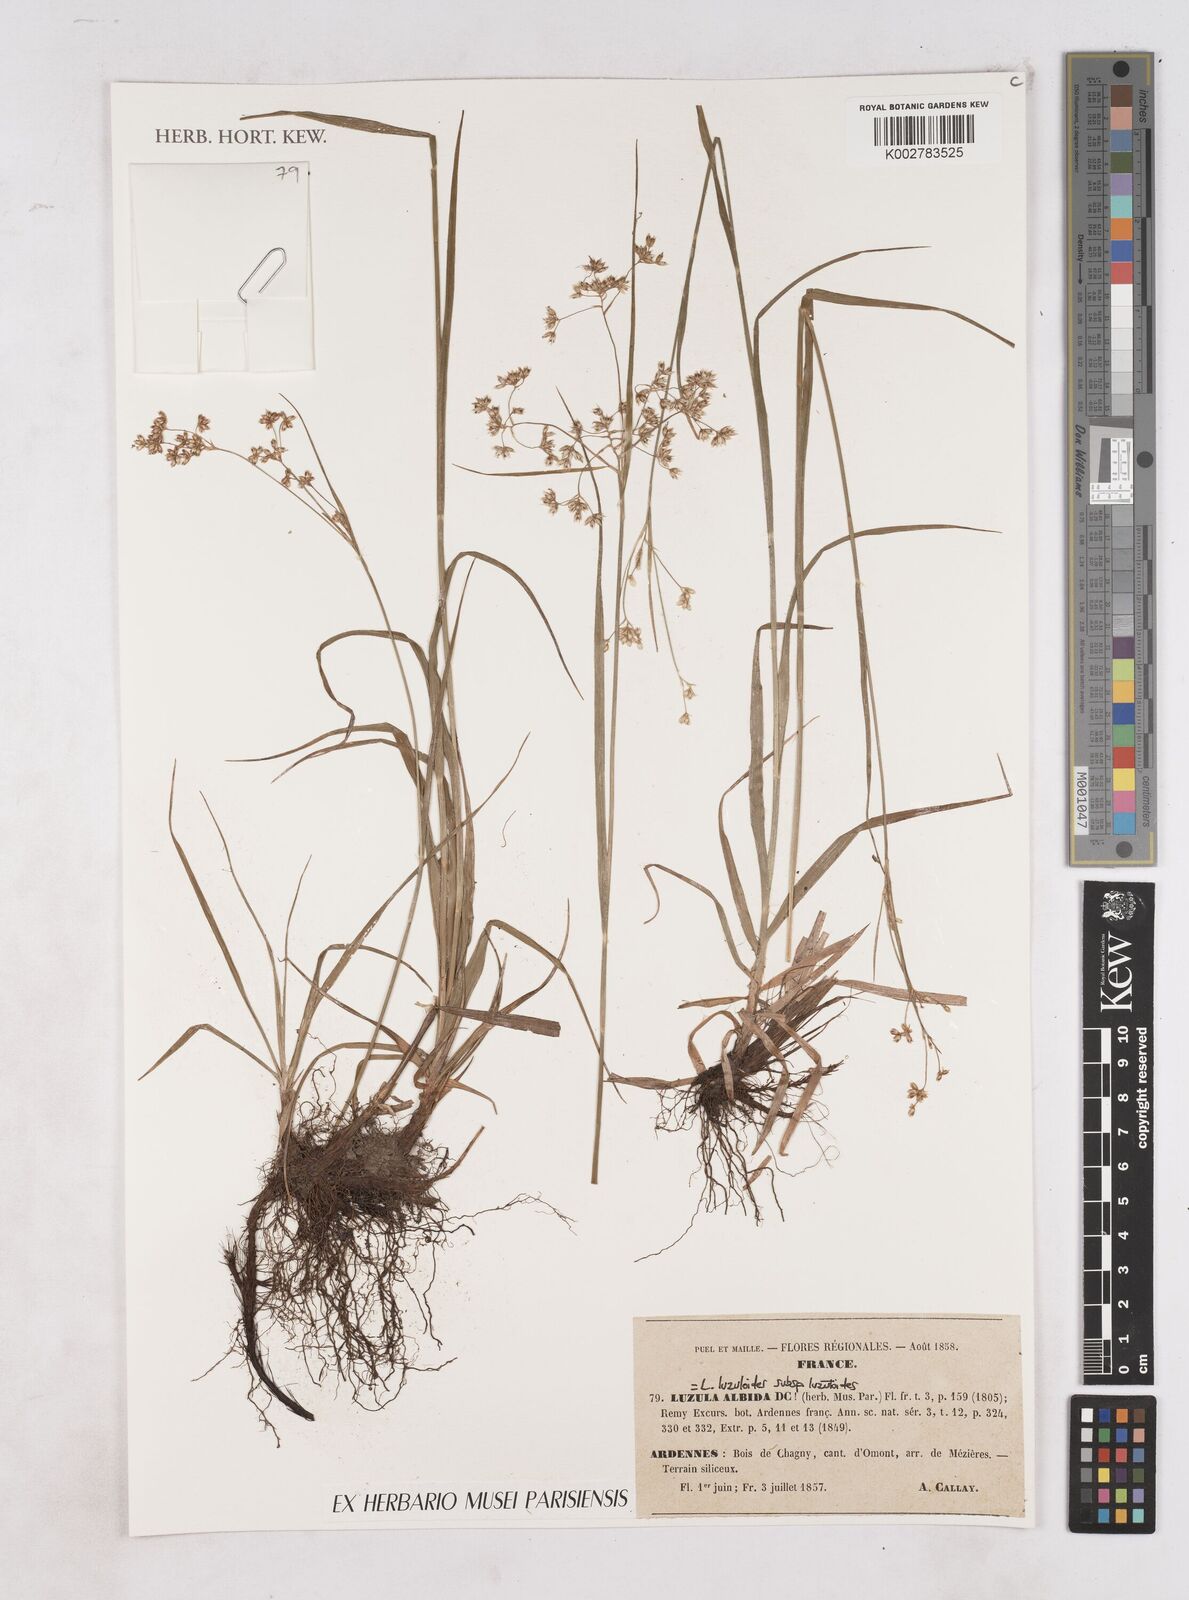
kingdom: Plantae
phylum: Tracheophyta
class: Liliopsida
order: Poales
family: Juncaceae
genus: Luzula
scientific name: Luzula luzuloides
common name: White wood-rush
